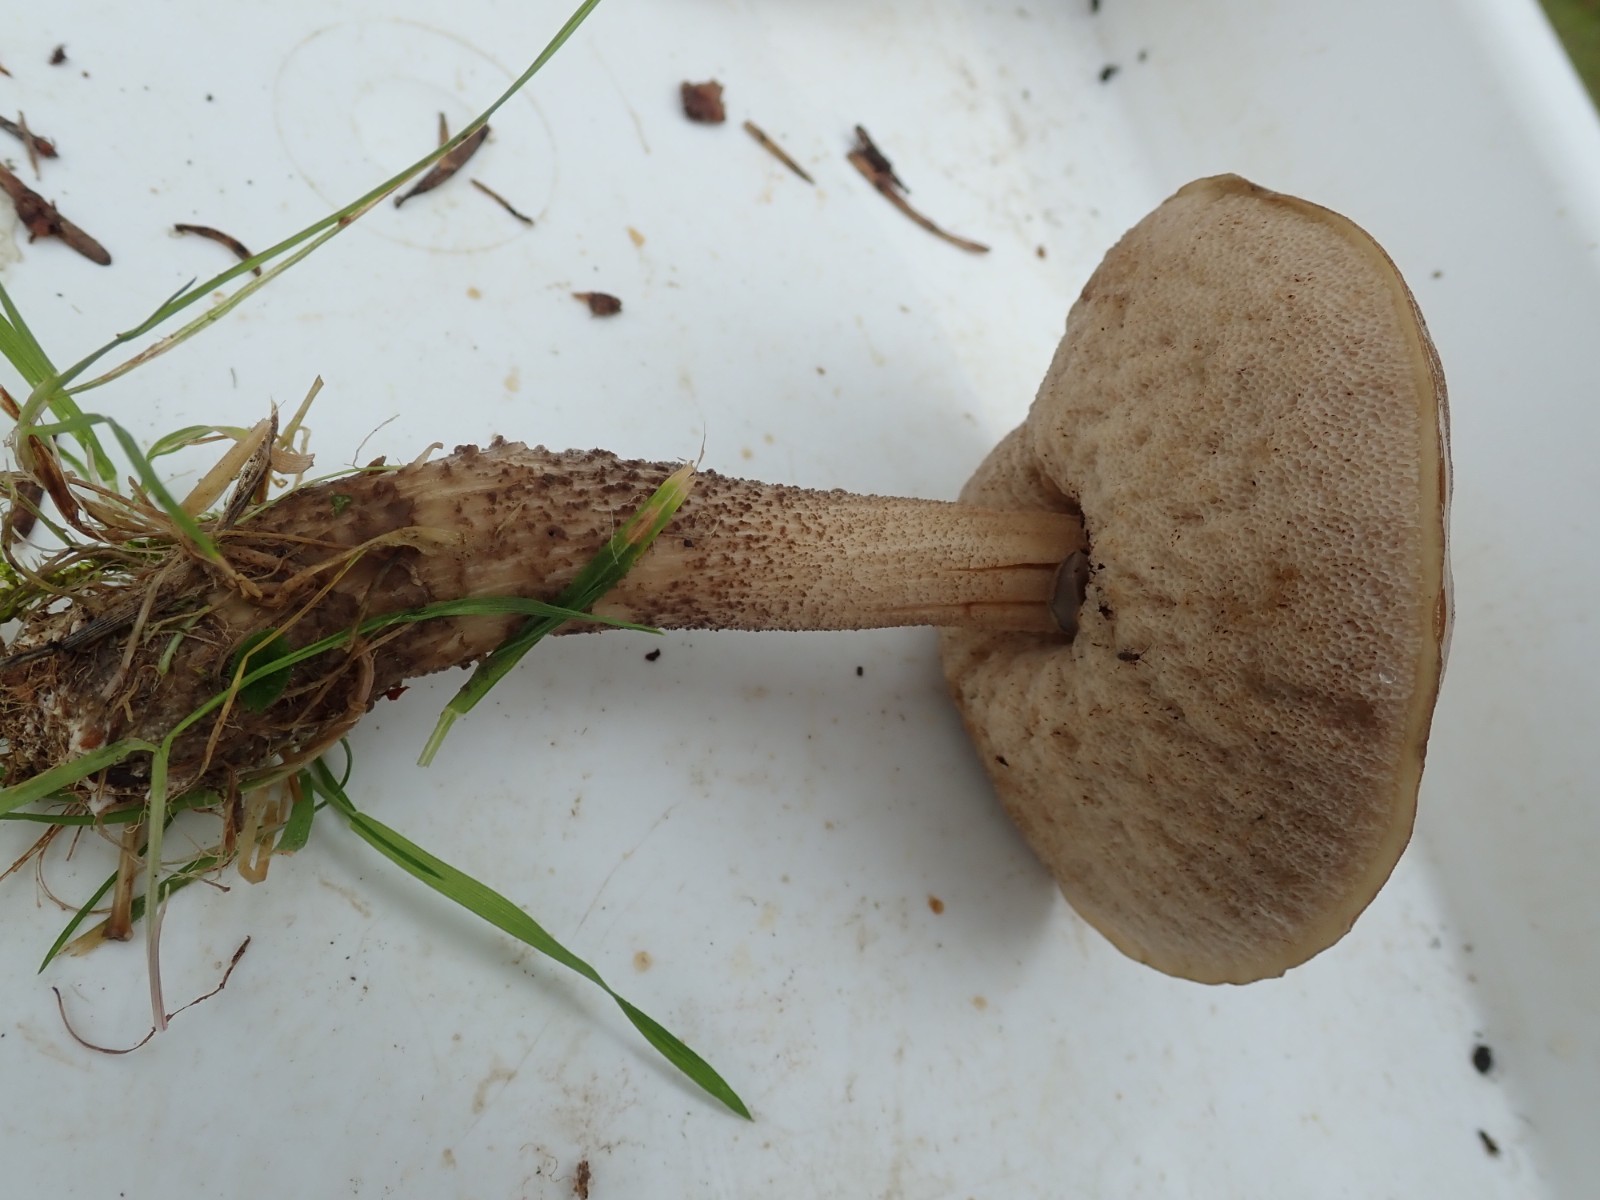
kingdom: Fungi
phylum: Basidiomycota
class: Agaricomycetes
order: Boletales
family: Boletaceae
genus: Leccinum
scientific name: Leccinum scabrum
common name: brun skælrørhat
